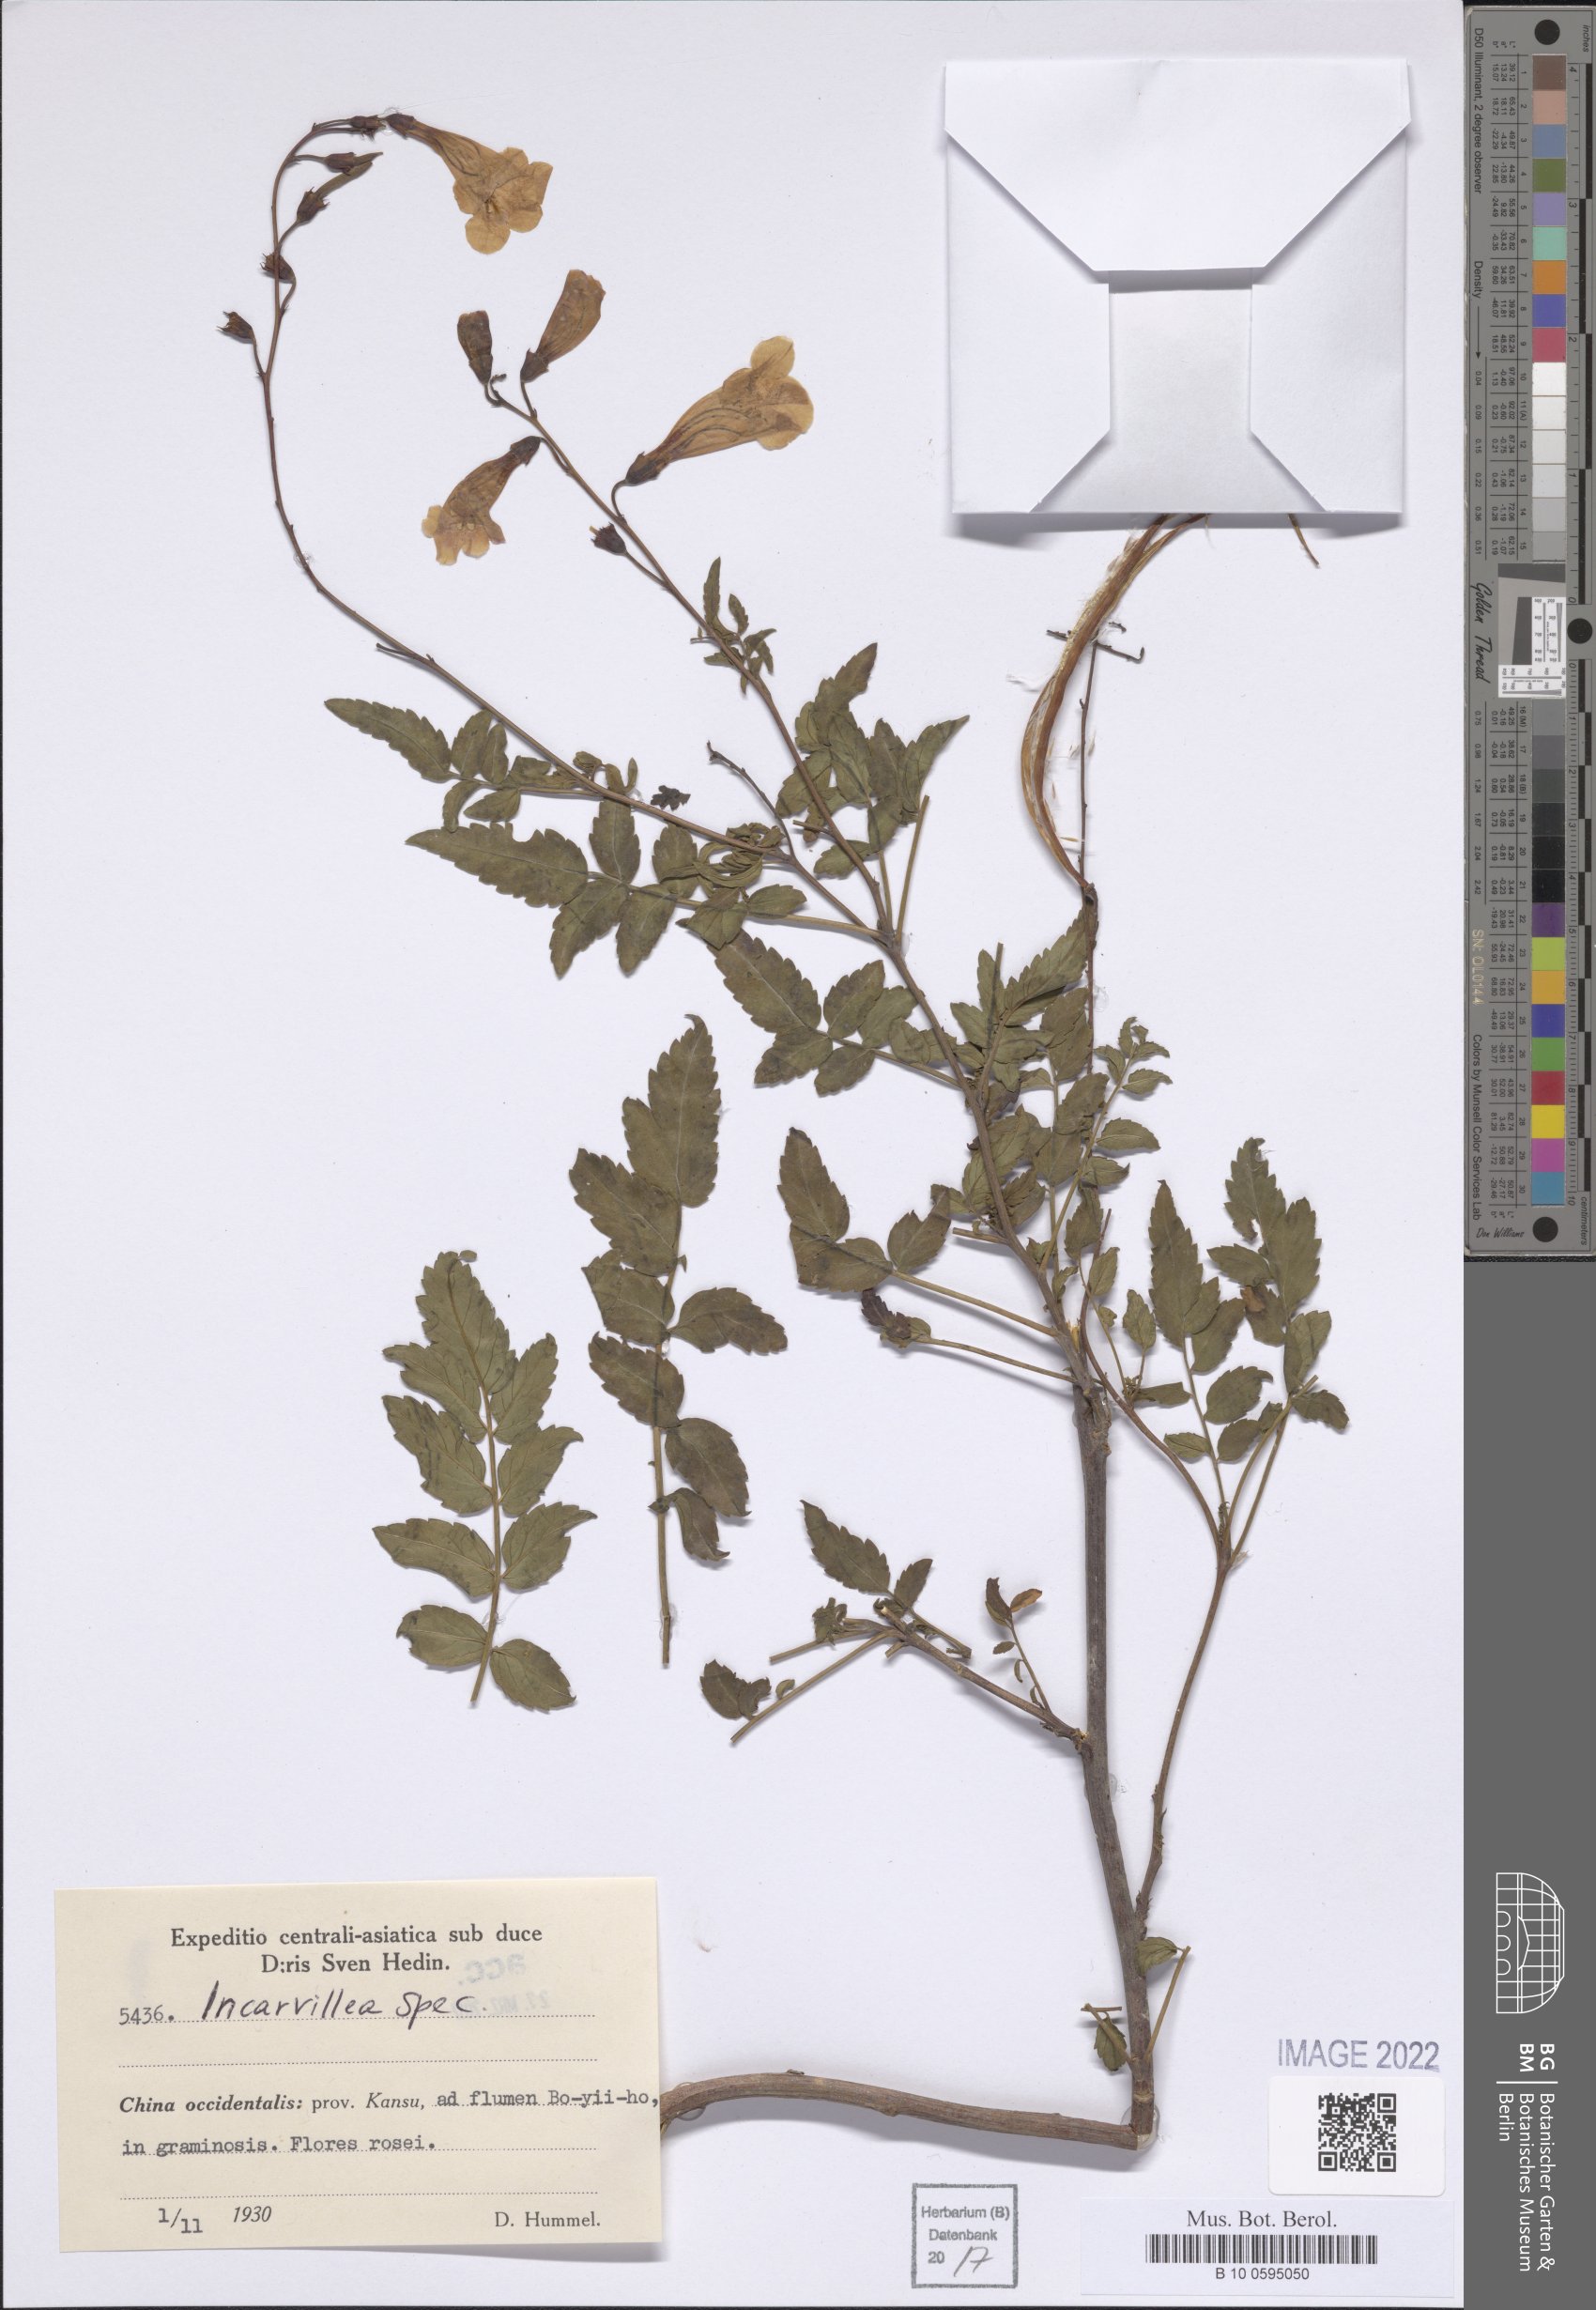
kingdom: Plantae
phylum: Tracheophyta
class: Magnoliopsida
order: Lamiales
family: Bignoniaceae
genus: Incarvillea
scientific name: Incarvillea
